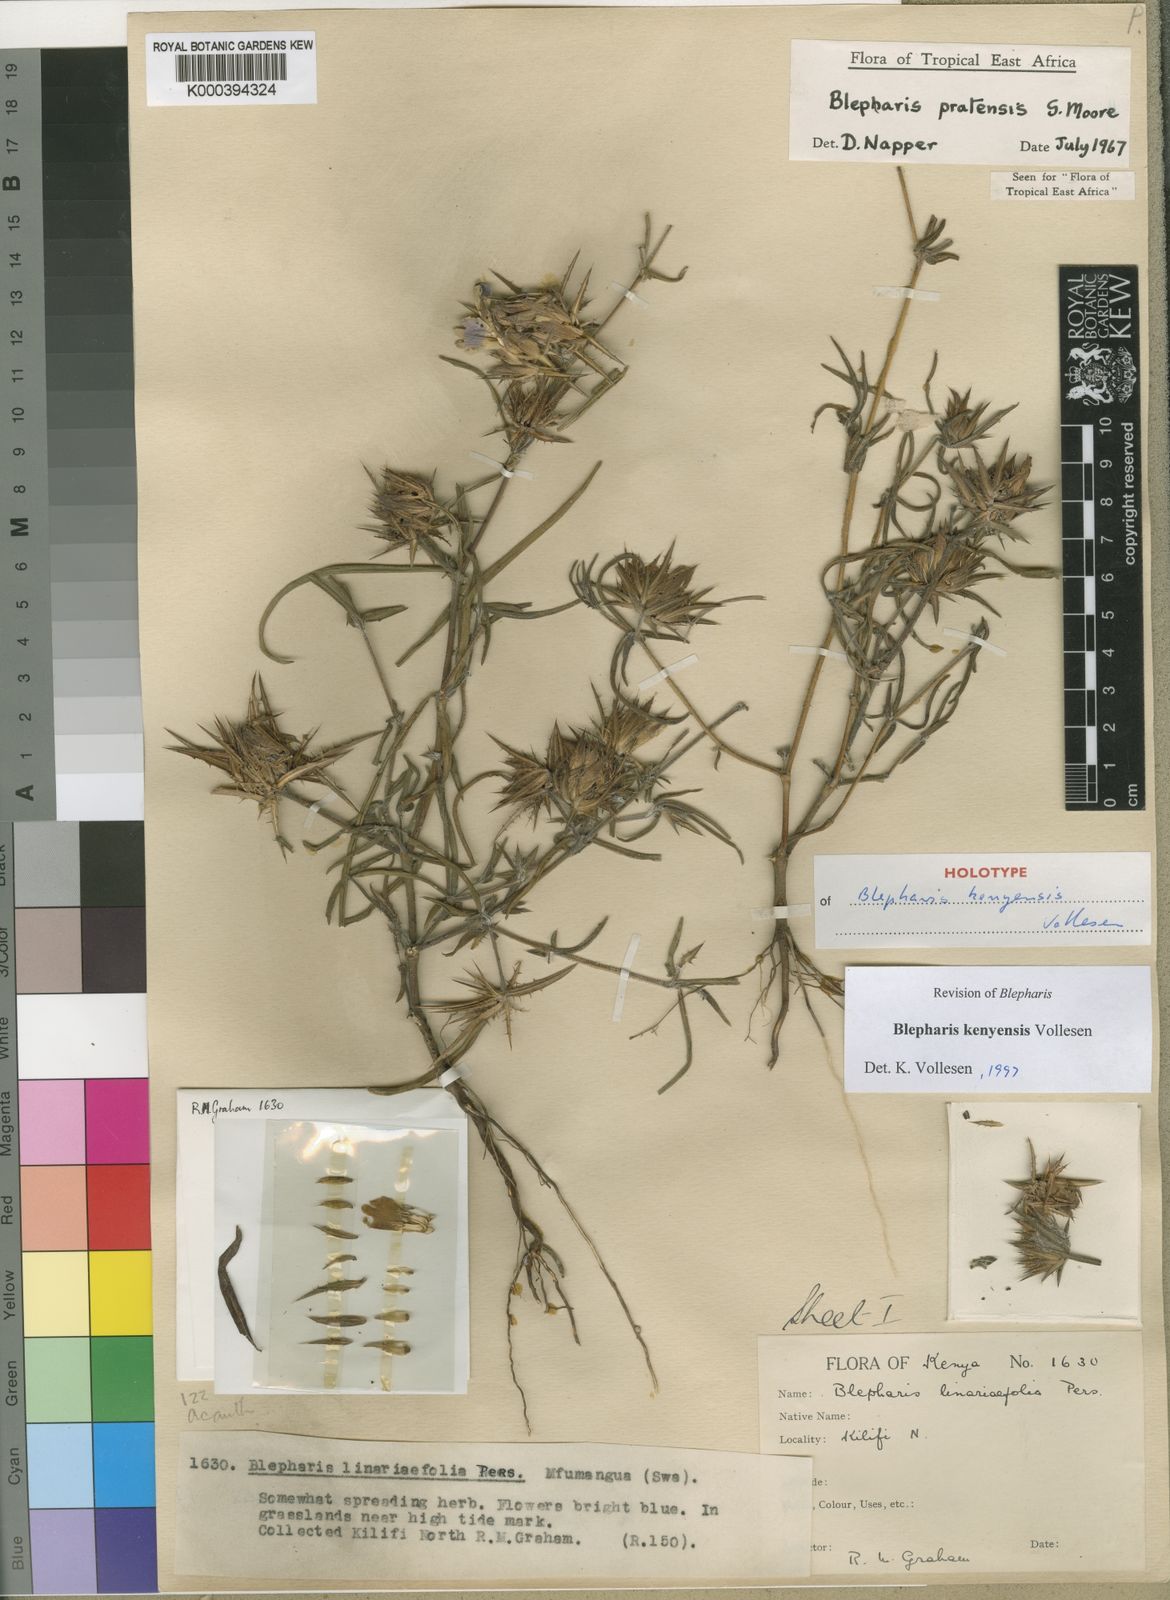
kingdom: Plantae
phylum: Tracheophyta
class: Magnoliopsida
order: Lamiales
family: Acanthaceae
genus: Blepharis
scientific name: Blepharis kenyensis
